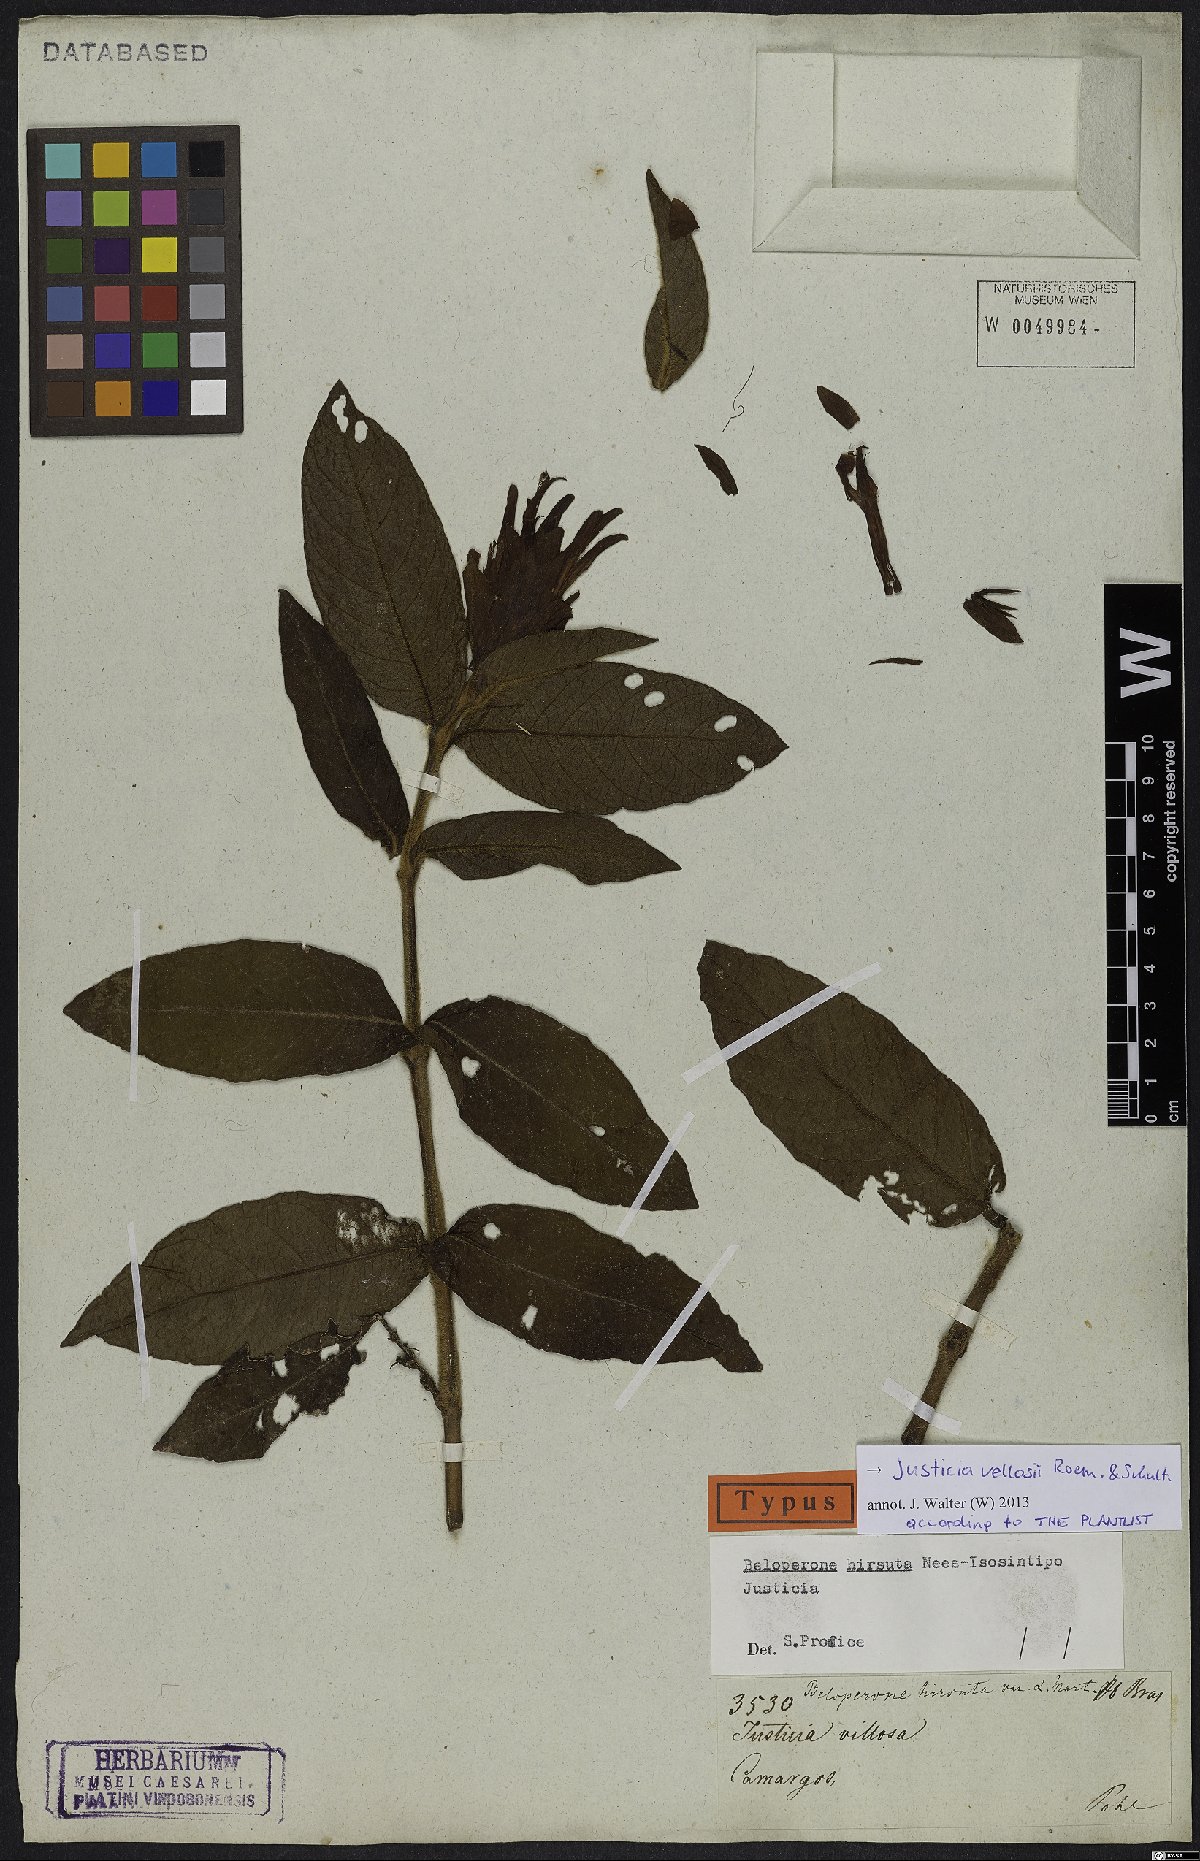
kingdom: Plantae
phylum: Tracheophyta
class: Magnoliopsida
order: Lamiales
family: Acanthaceae
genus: Justicia
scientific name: Justicia pohliana
